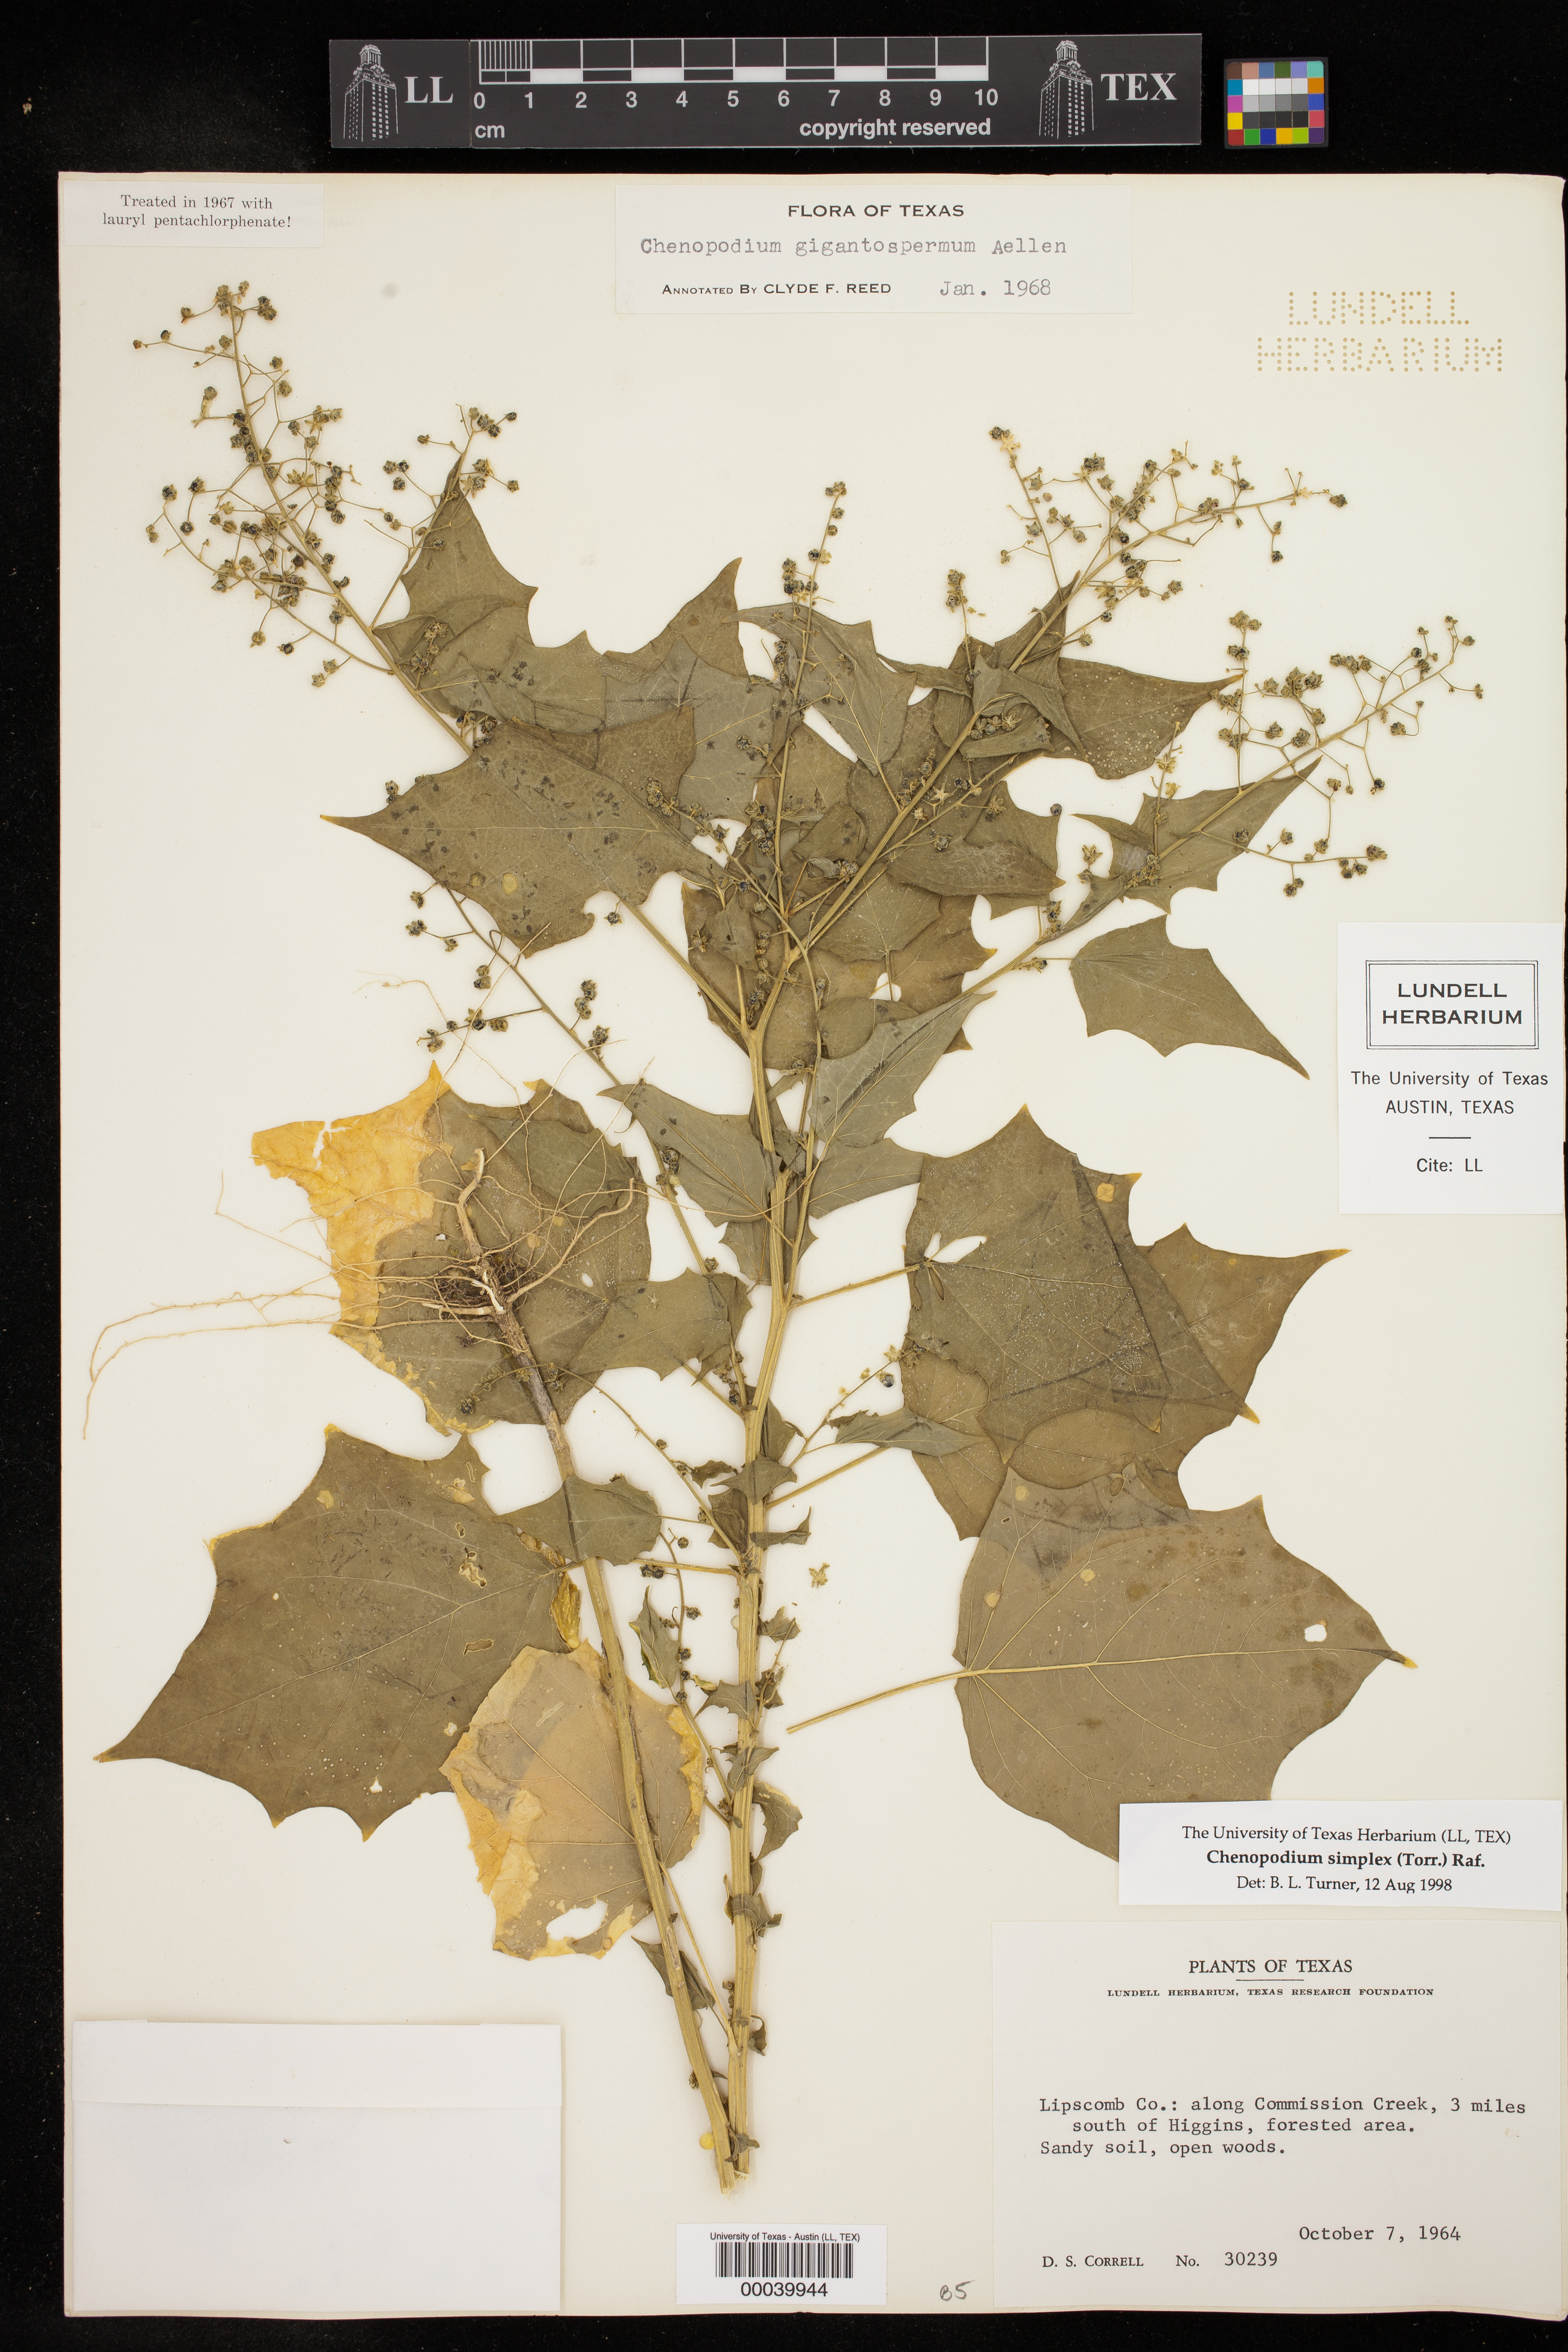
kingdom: Plantae
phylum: Tracheophyta
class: Magnoliopsida
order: Caryophyllales
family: Amaranthaceae
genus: Chenopodiastrum
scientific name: Chenopodiastrum simplex
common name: Large-seed goosefoot
